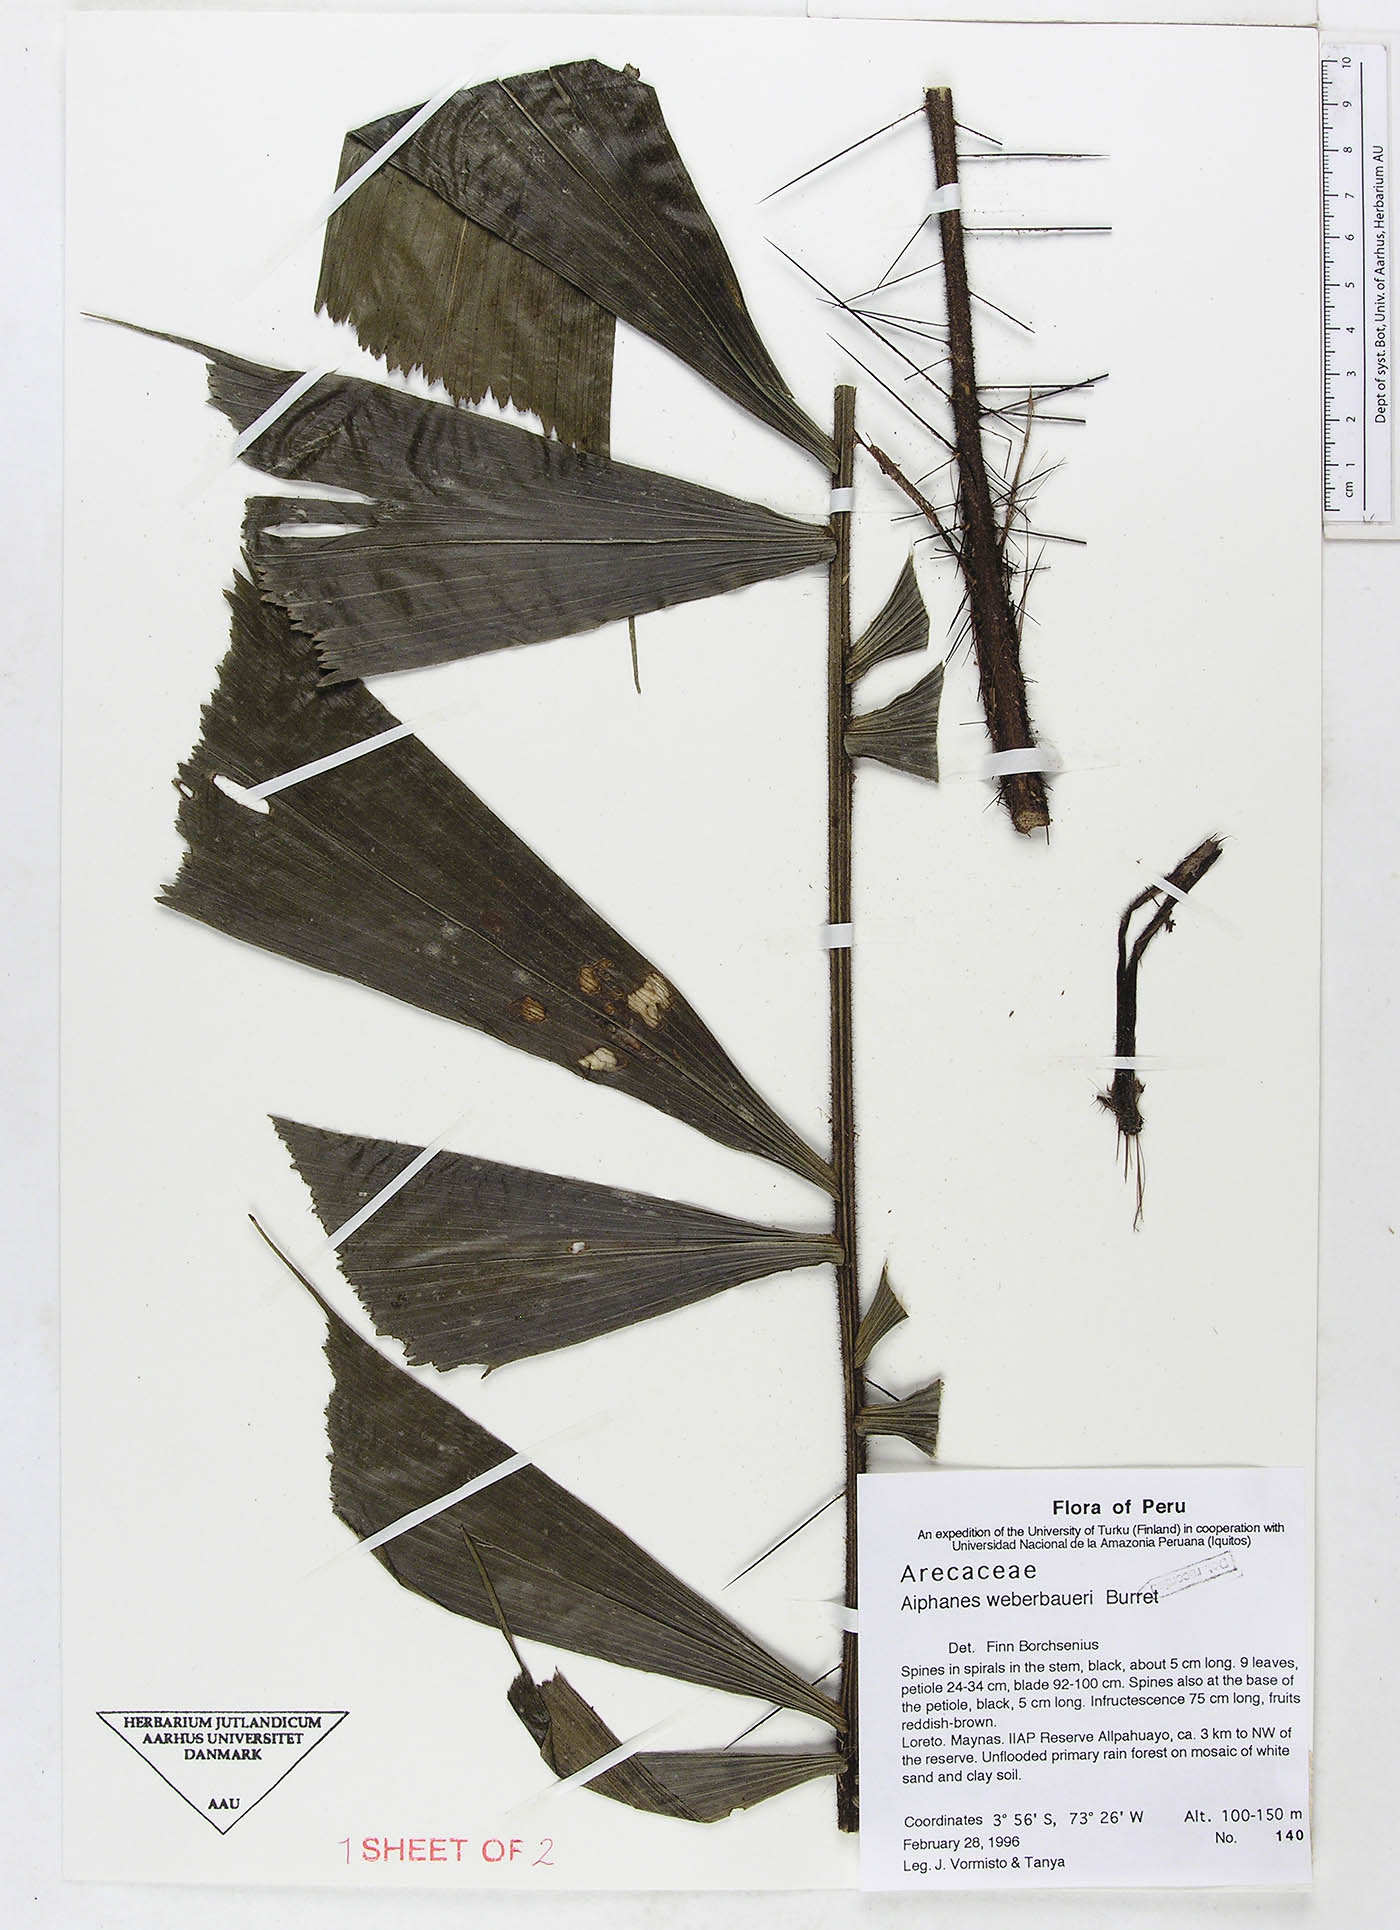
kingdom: Plantae
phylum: Tracheophyta
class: Liliopsida
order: Arecales
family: Arecaceae
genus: Aiphanes
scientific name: Aiphanes weberbaueri
